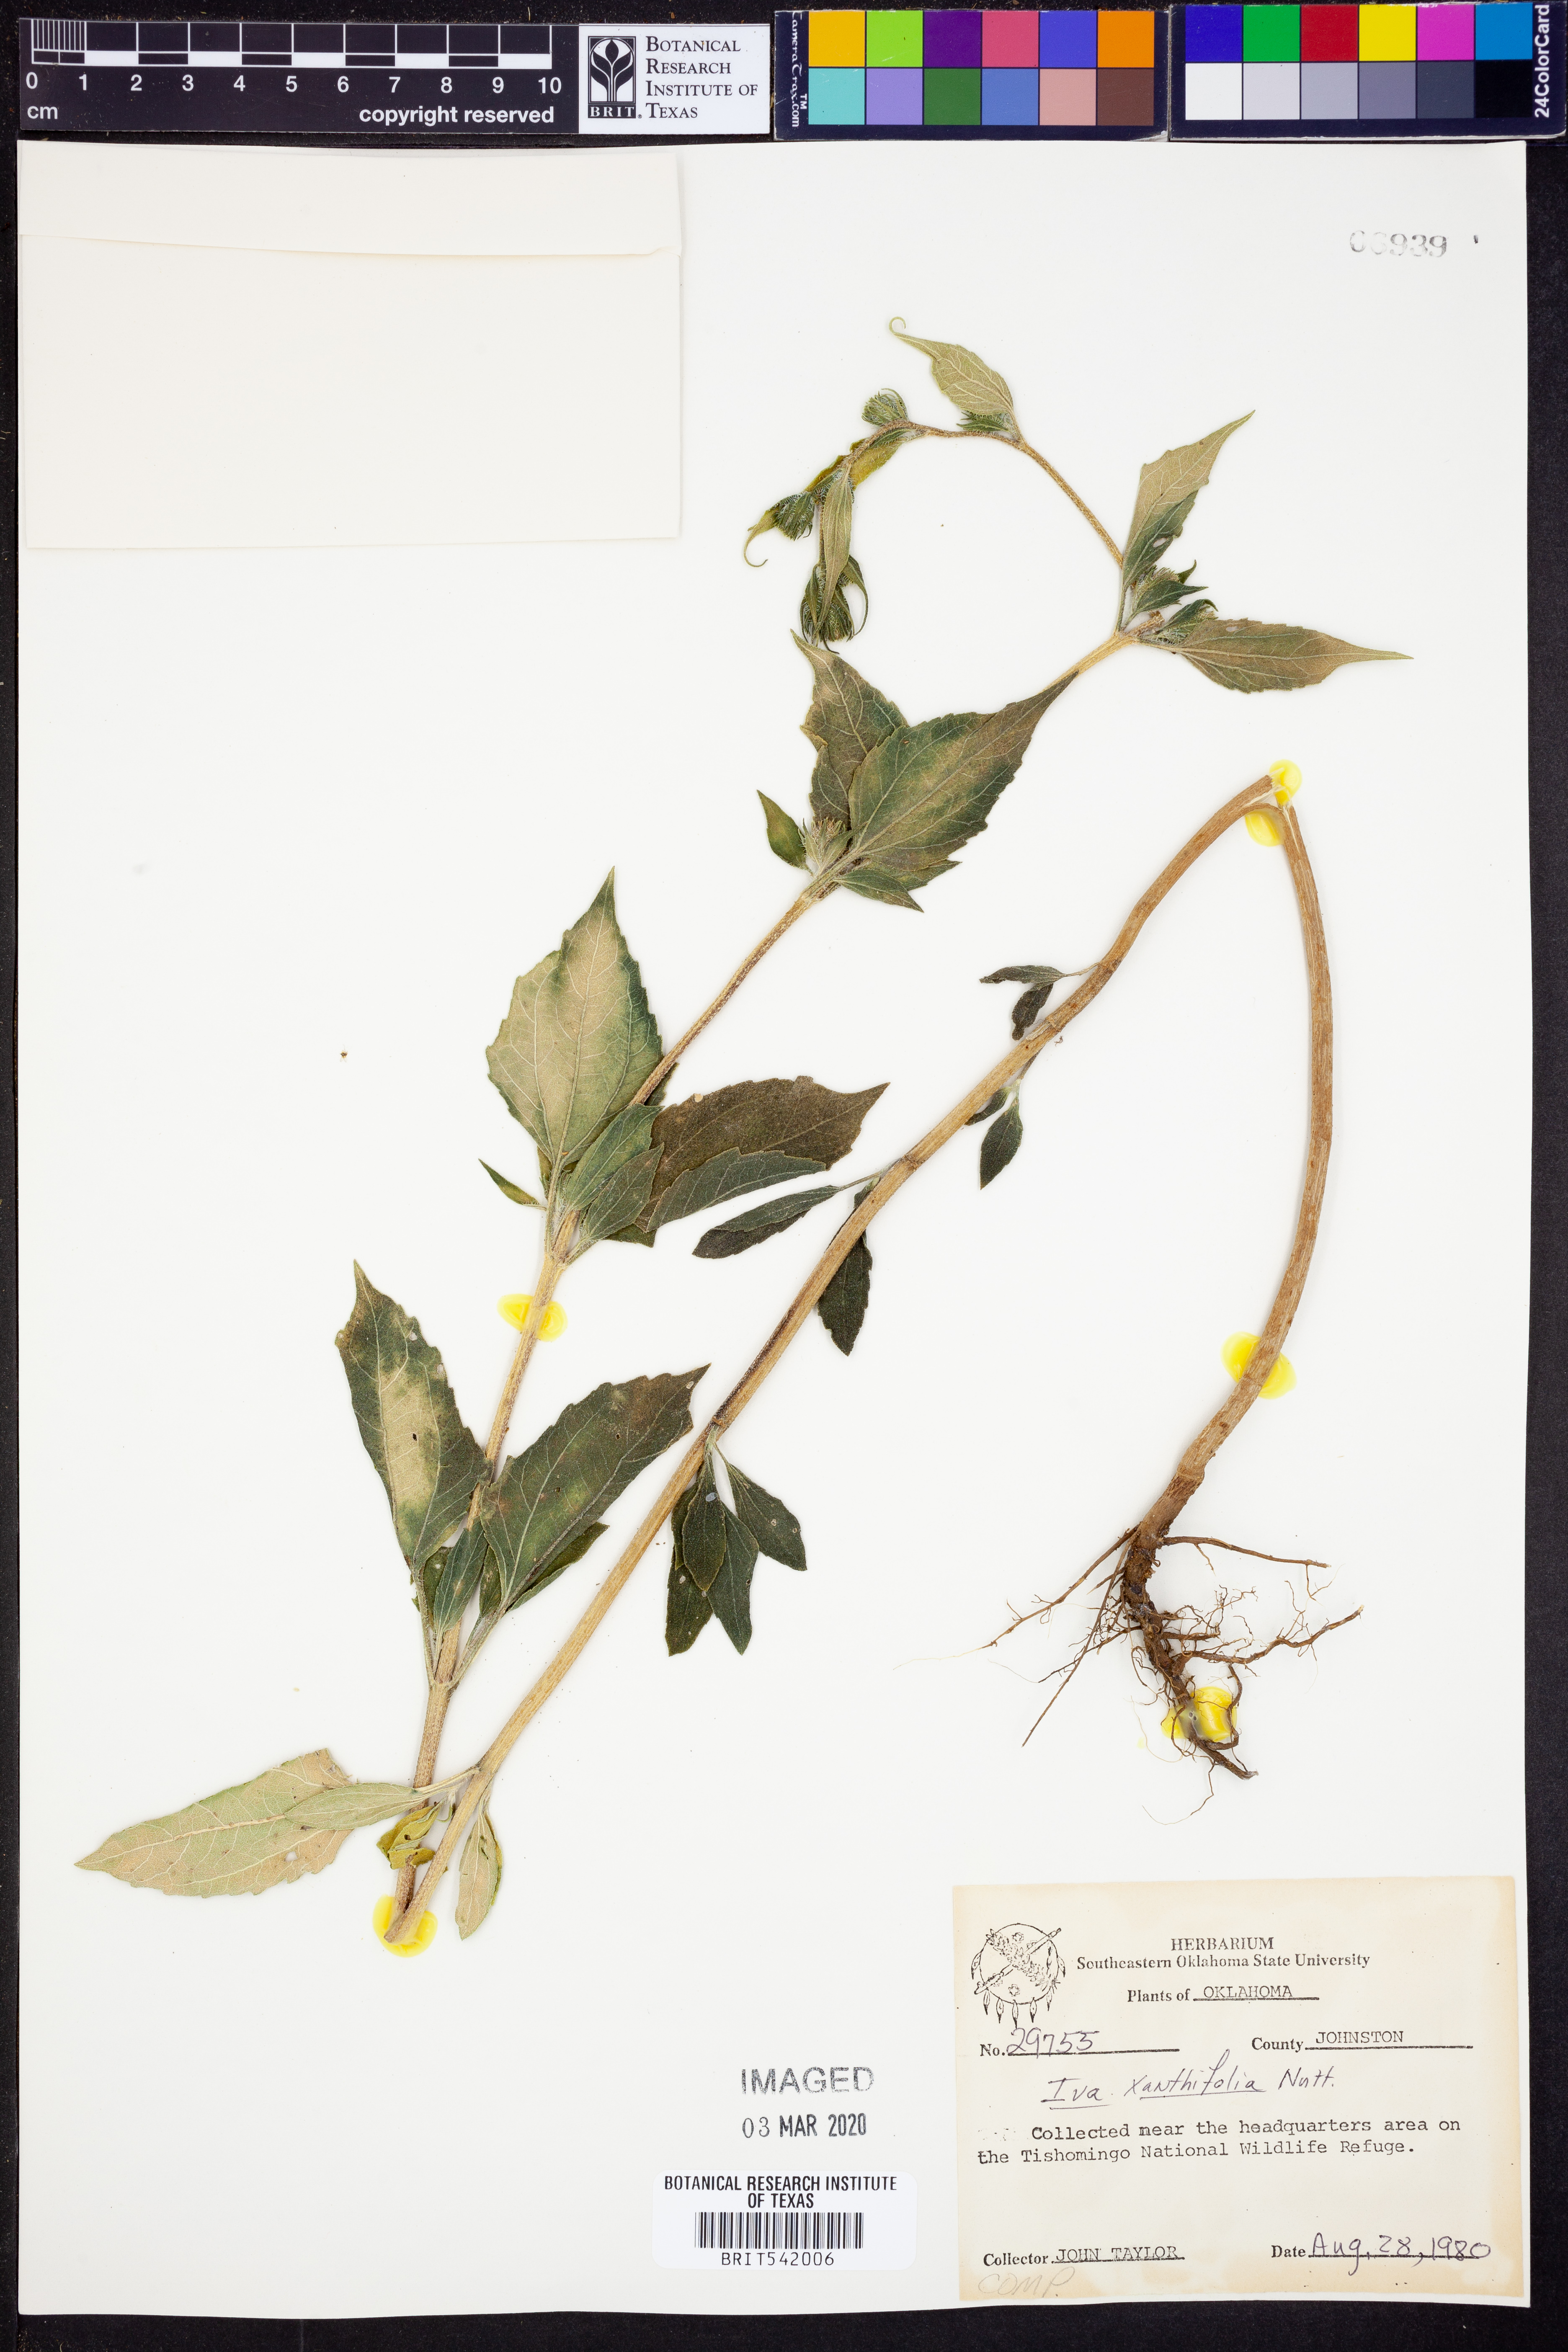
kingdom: Plantae
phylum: Tracheophyta
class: Magnoliopsida
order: Asterales
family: Asteraceae
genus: Cyclachaena
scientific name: Cyclachaena xanthiifolia
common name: Giant sumpweed
